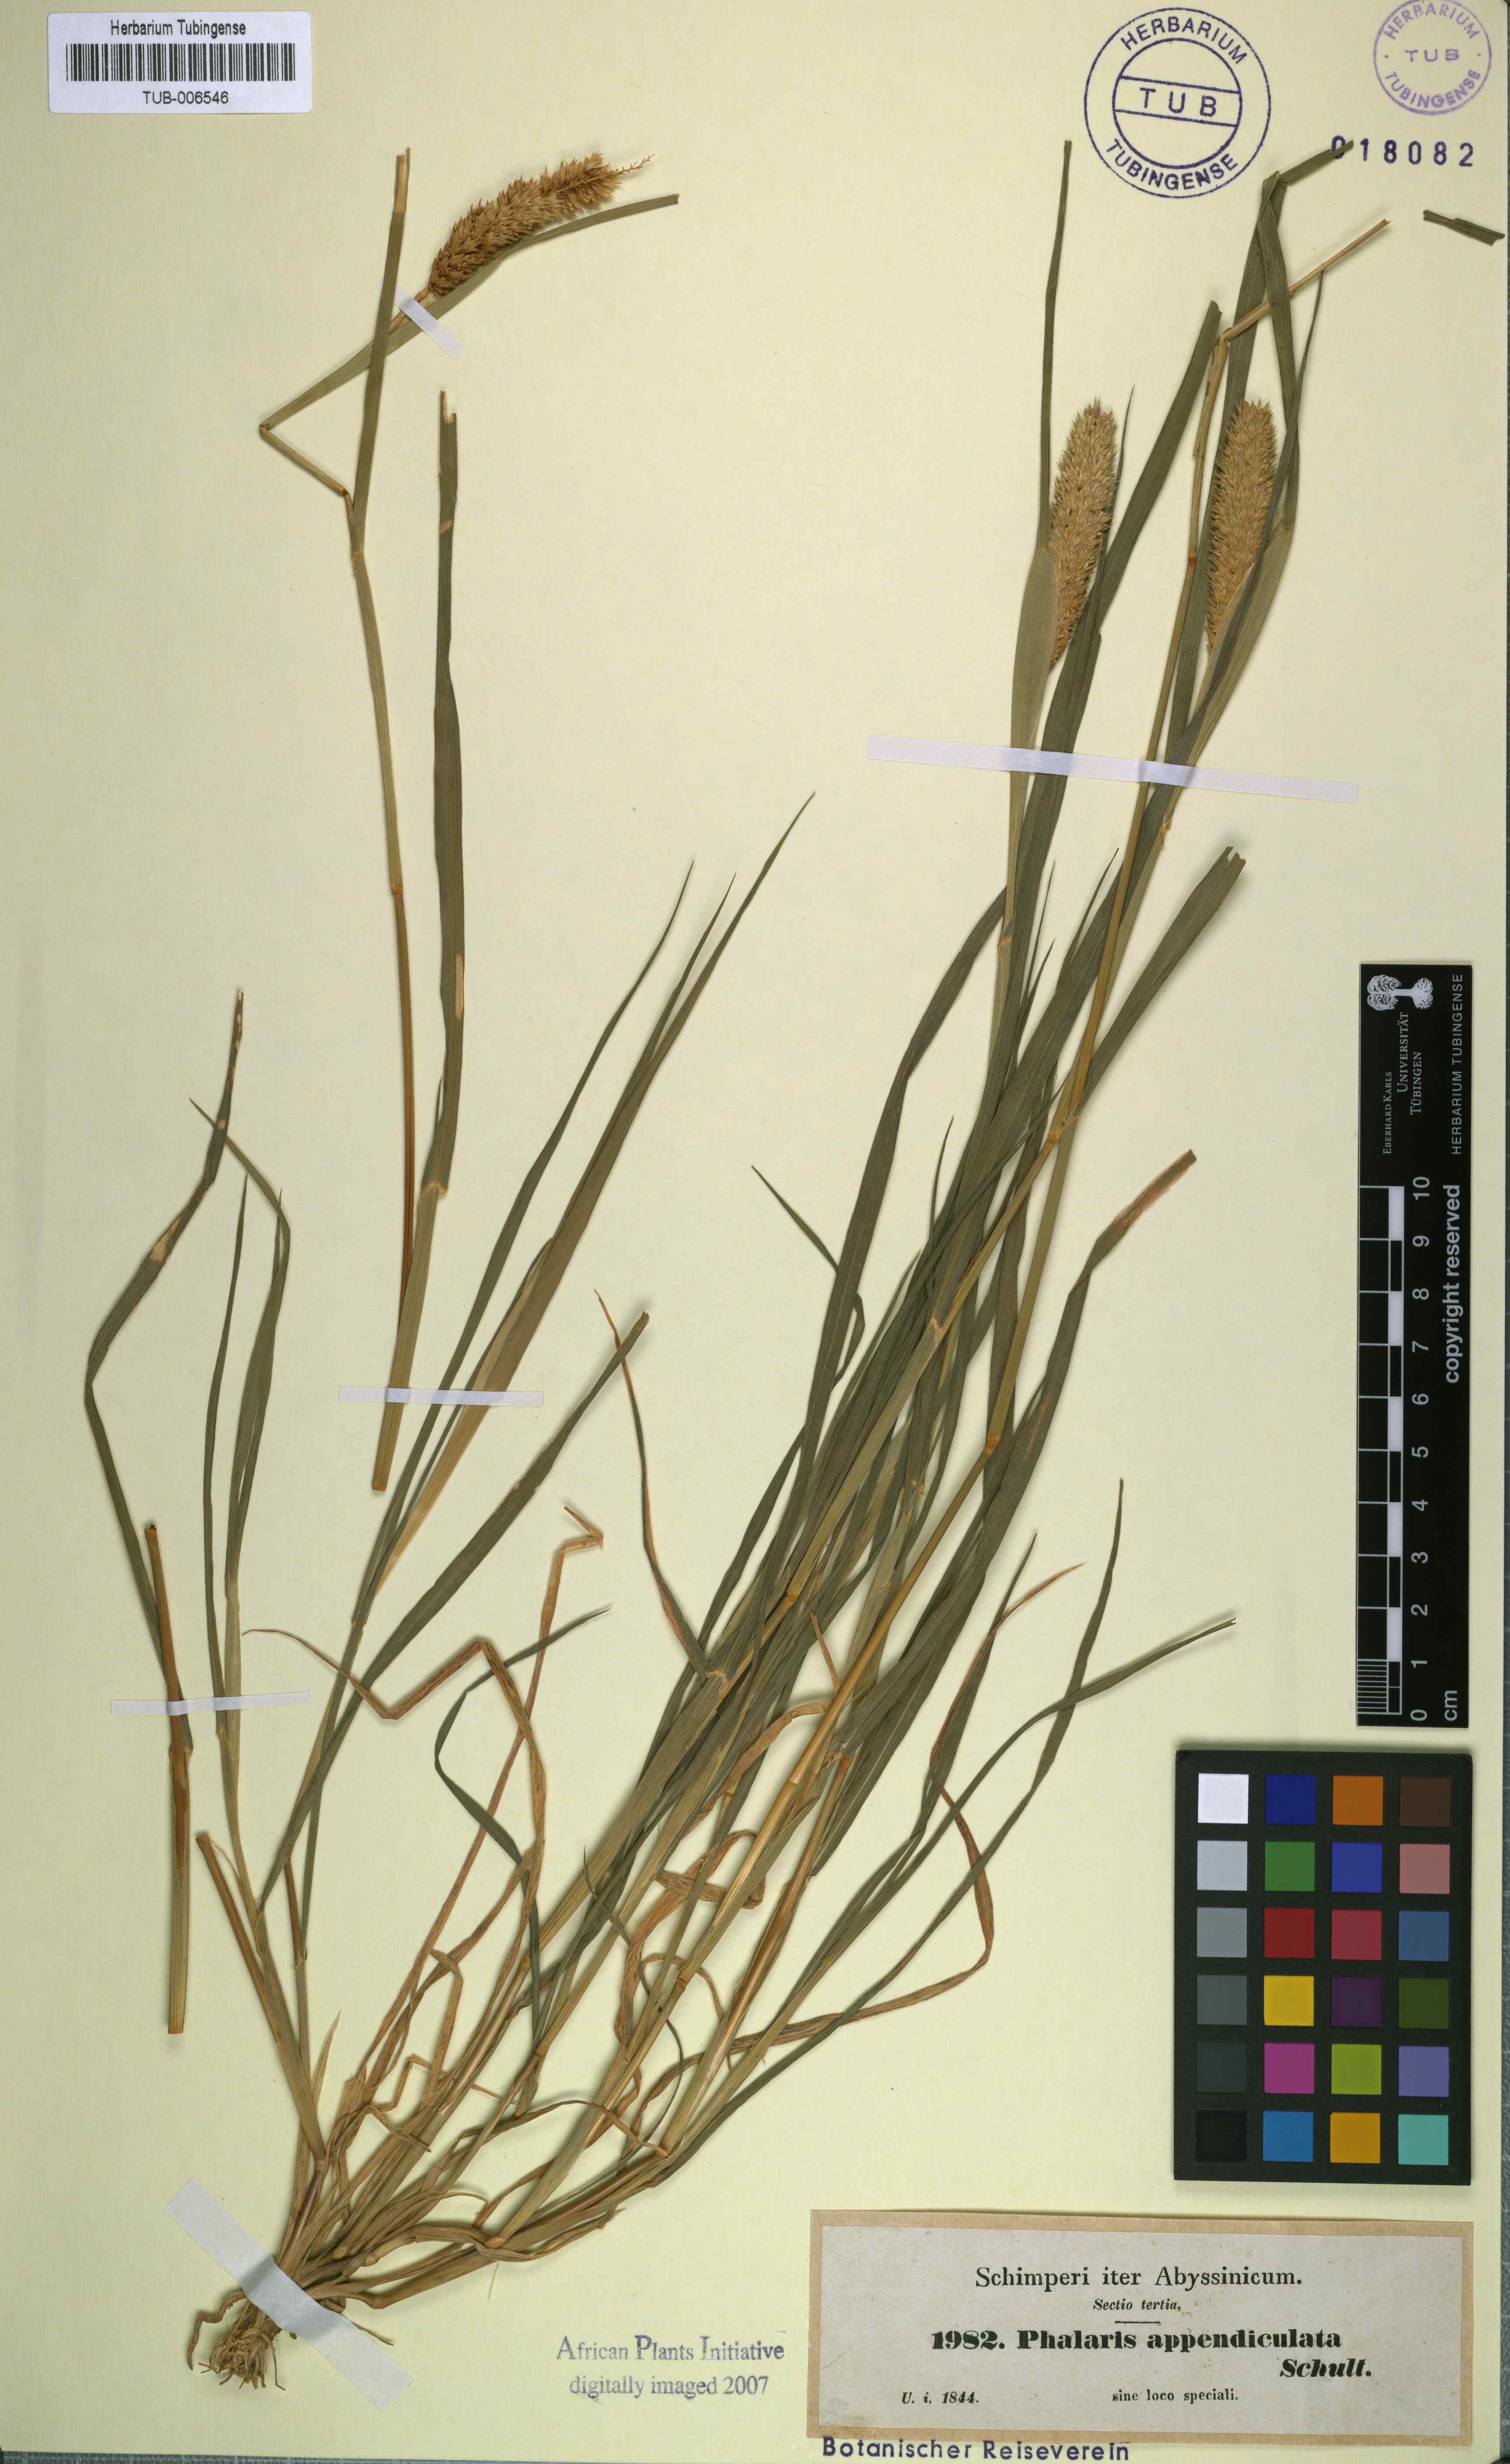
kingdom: Plantae
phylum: Tracheophyta
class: Liliopsida
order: Poales
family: Poaceae
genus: Phalaris
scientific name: Phalaris paradoxa
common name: Awned canary-grass
